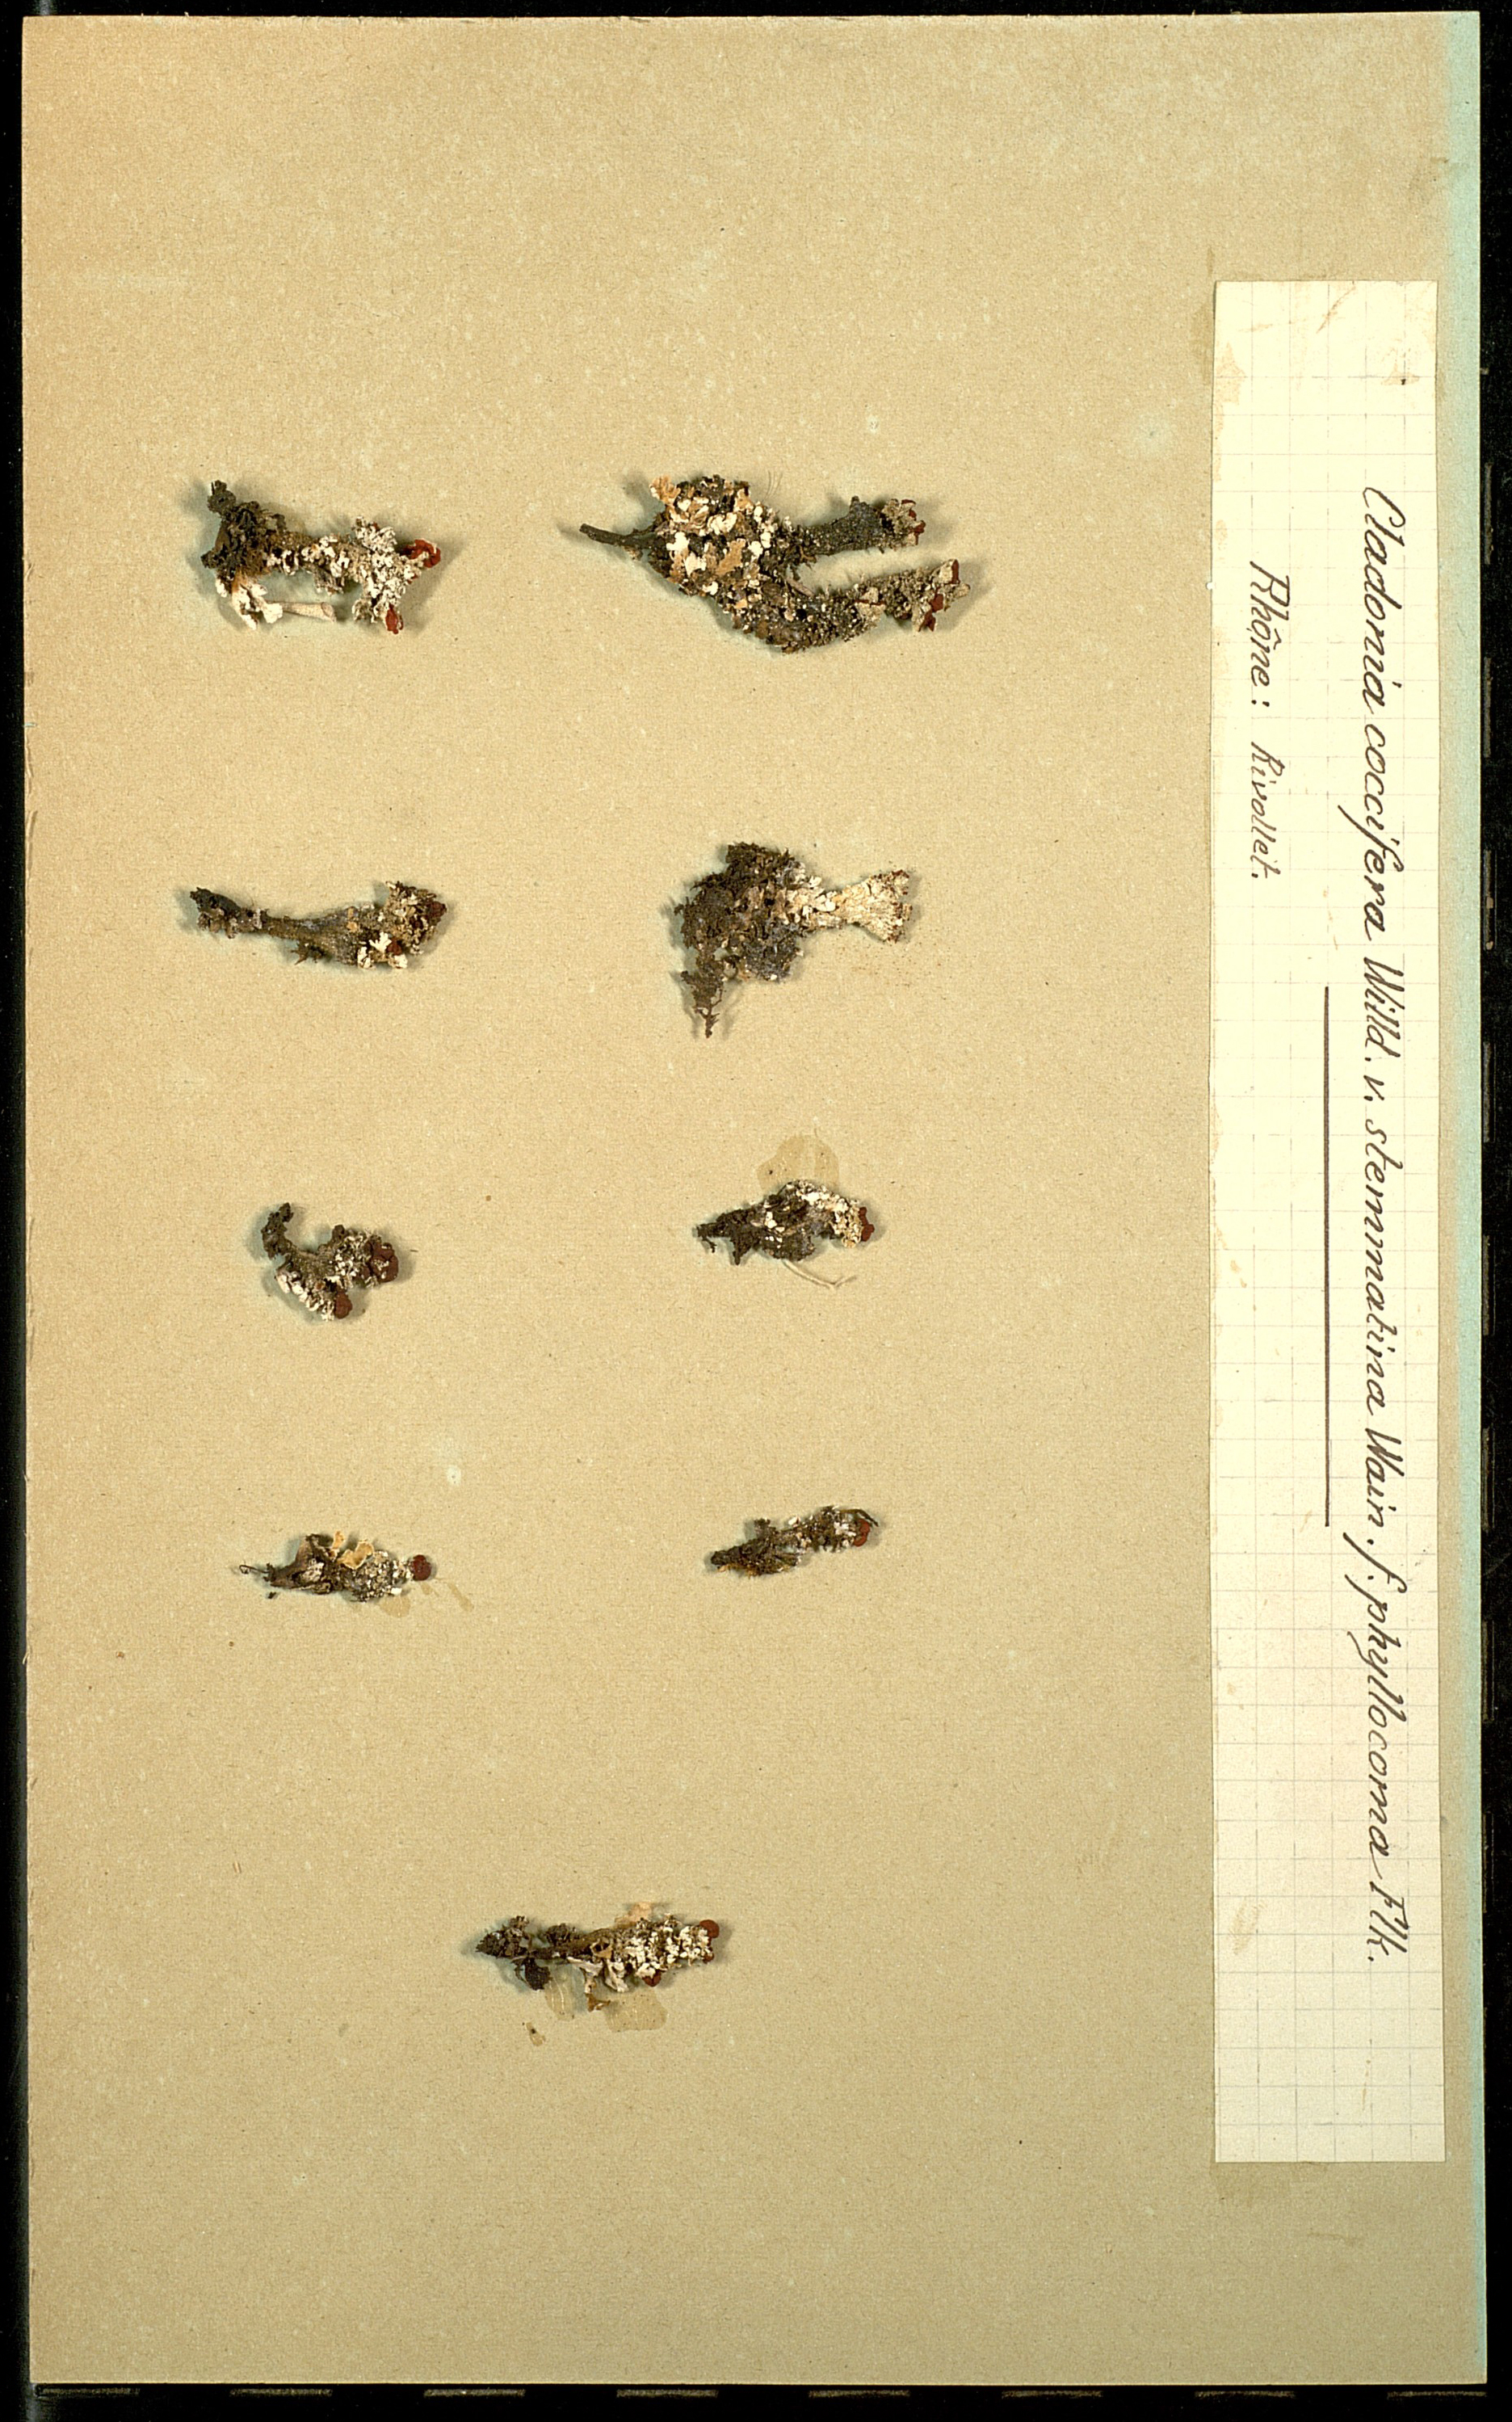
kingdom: Fungi
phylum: Ascomycota
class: Lecanoromycetes
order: Lecanorales
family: Cladoniaceae
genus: Cladonia
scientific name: Cladonia coccifera
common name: Scarlet-cup lichen
